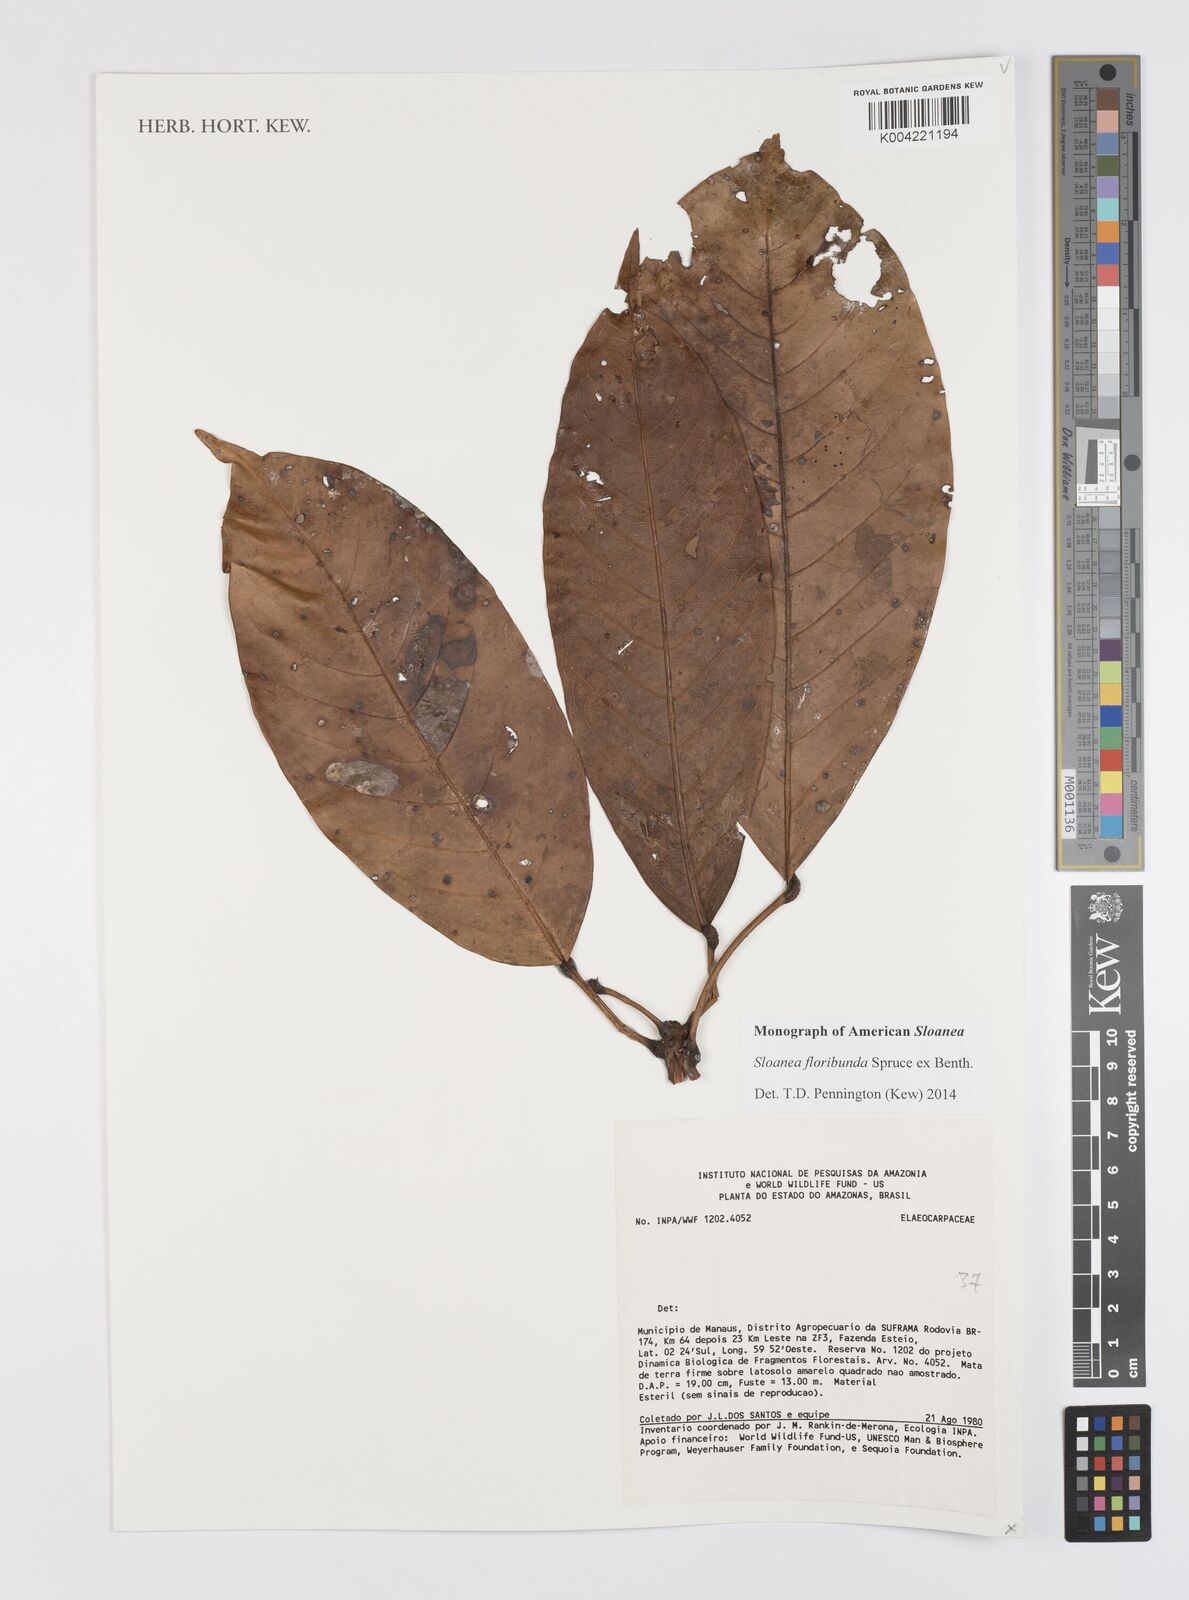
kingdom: Plantae
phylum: Tracheophyta
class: Magnoliopsida
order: Oxalidales
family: Elaeocarpaceae
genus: Sloanea
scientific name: Sloanea floribunda
